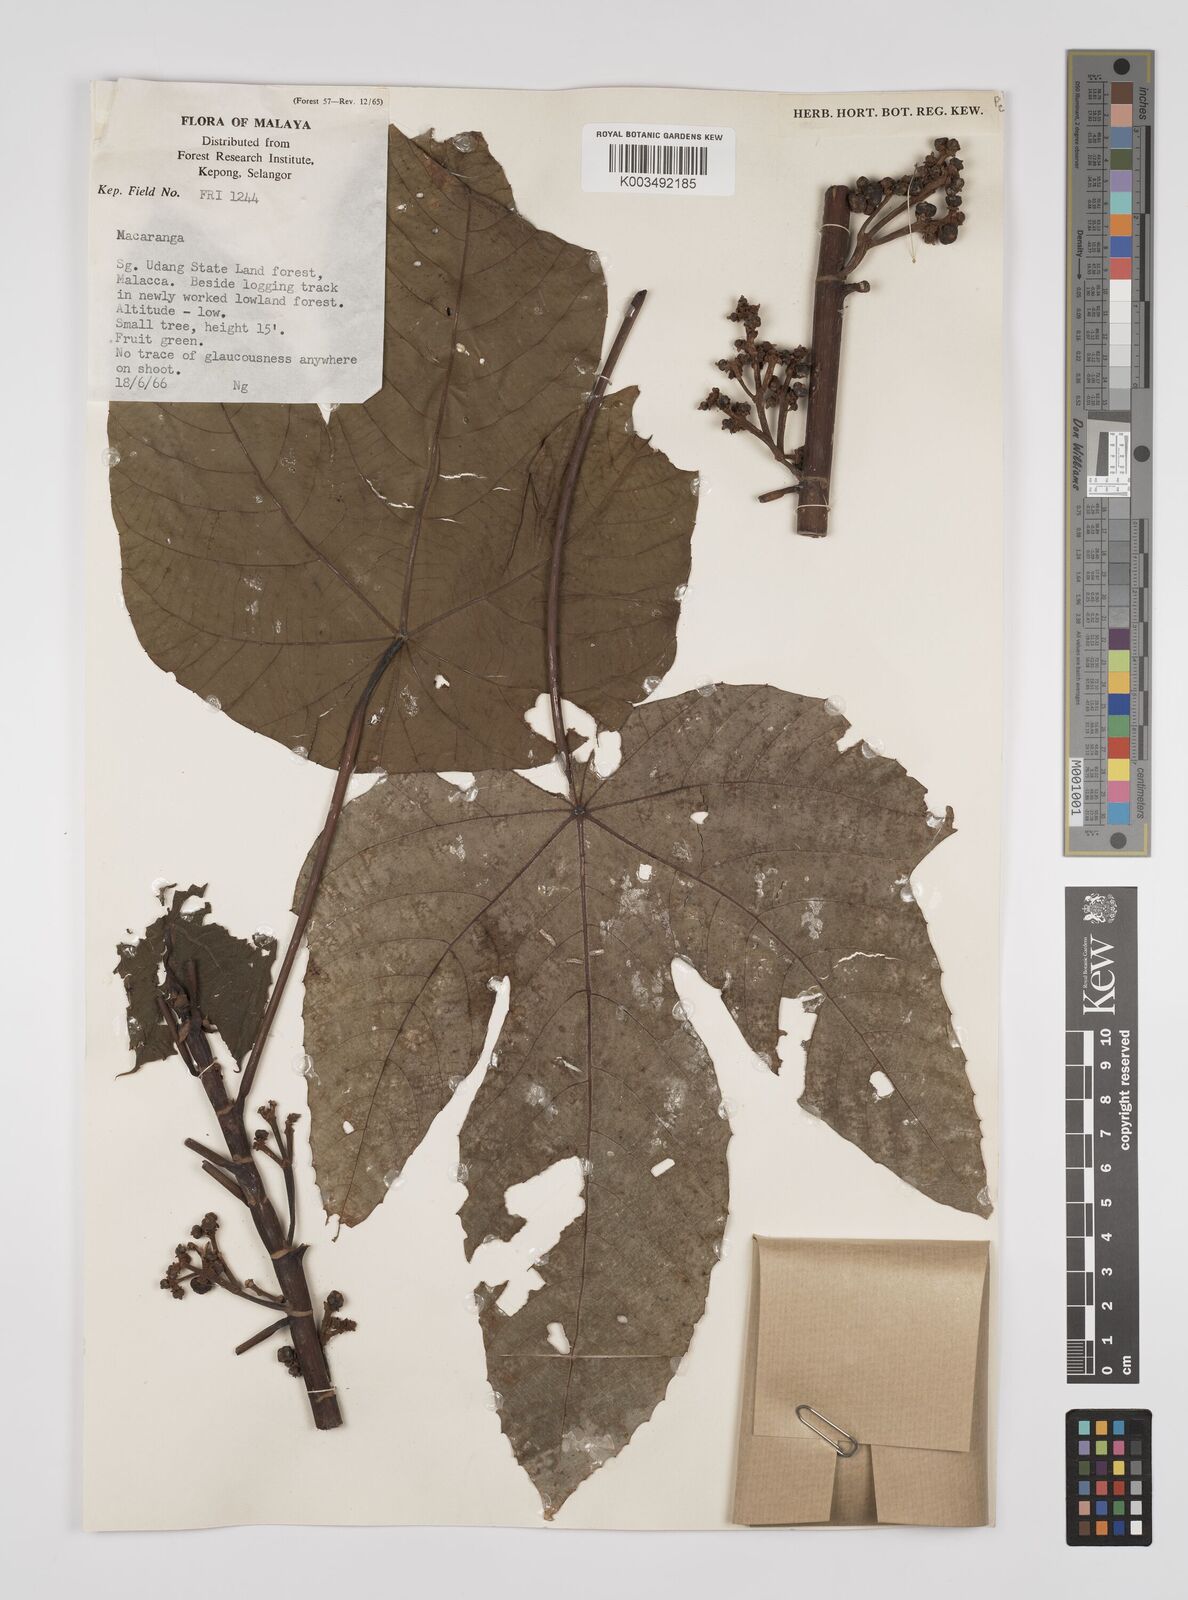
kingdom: Plantae
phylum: Tracheophyta
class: Magnoliopsida
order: Malpighiales
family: Euphorbiaceae
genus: Macaranga
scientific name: Macaranga triloba
